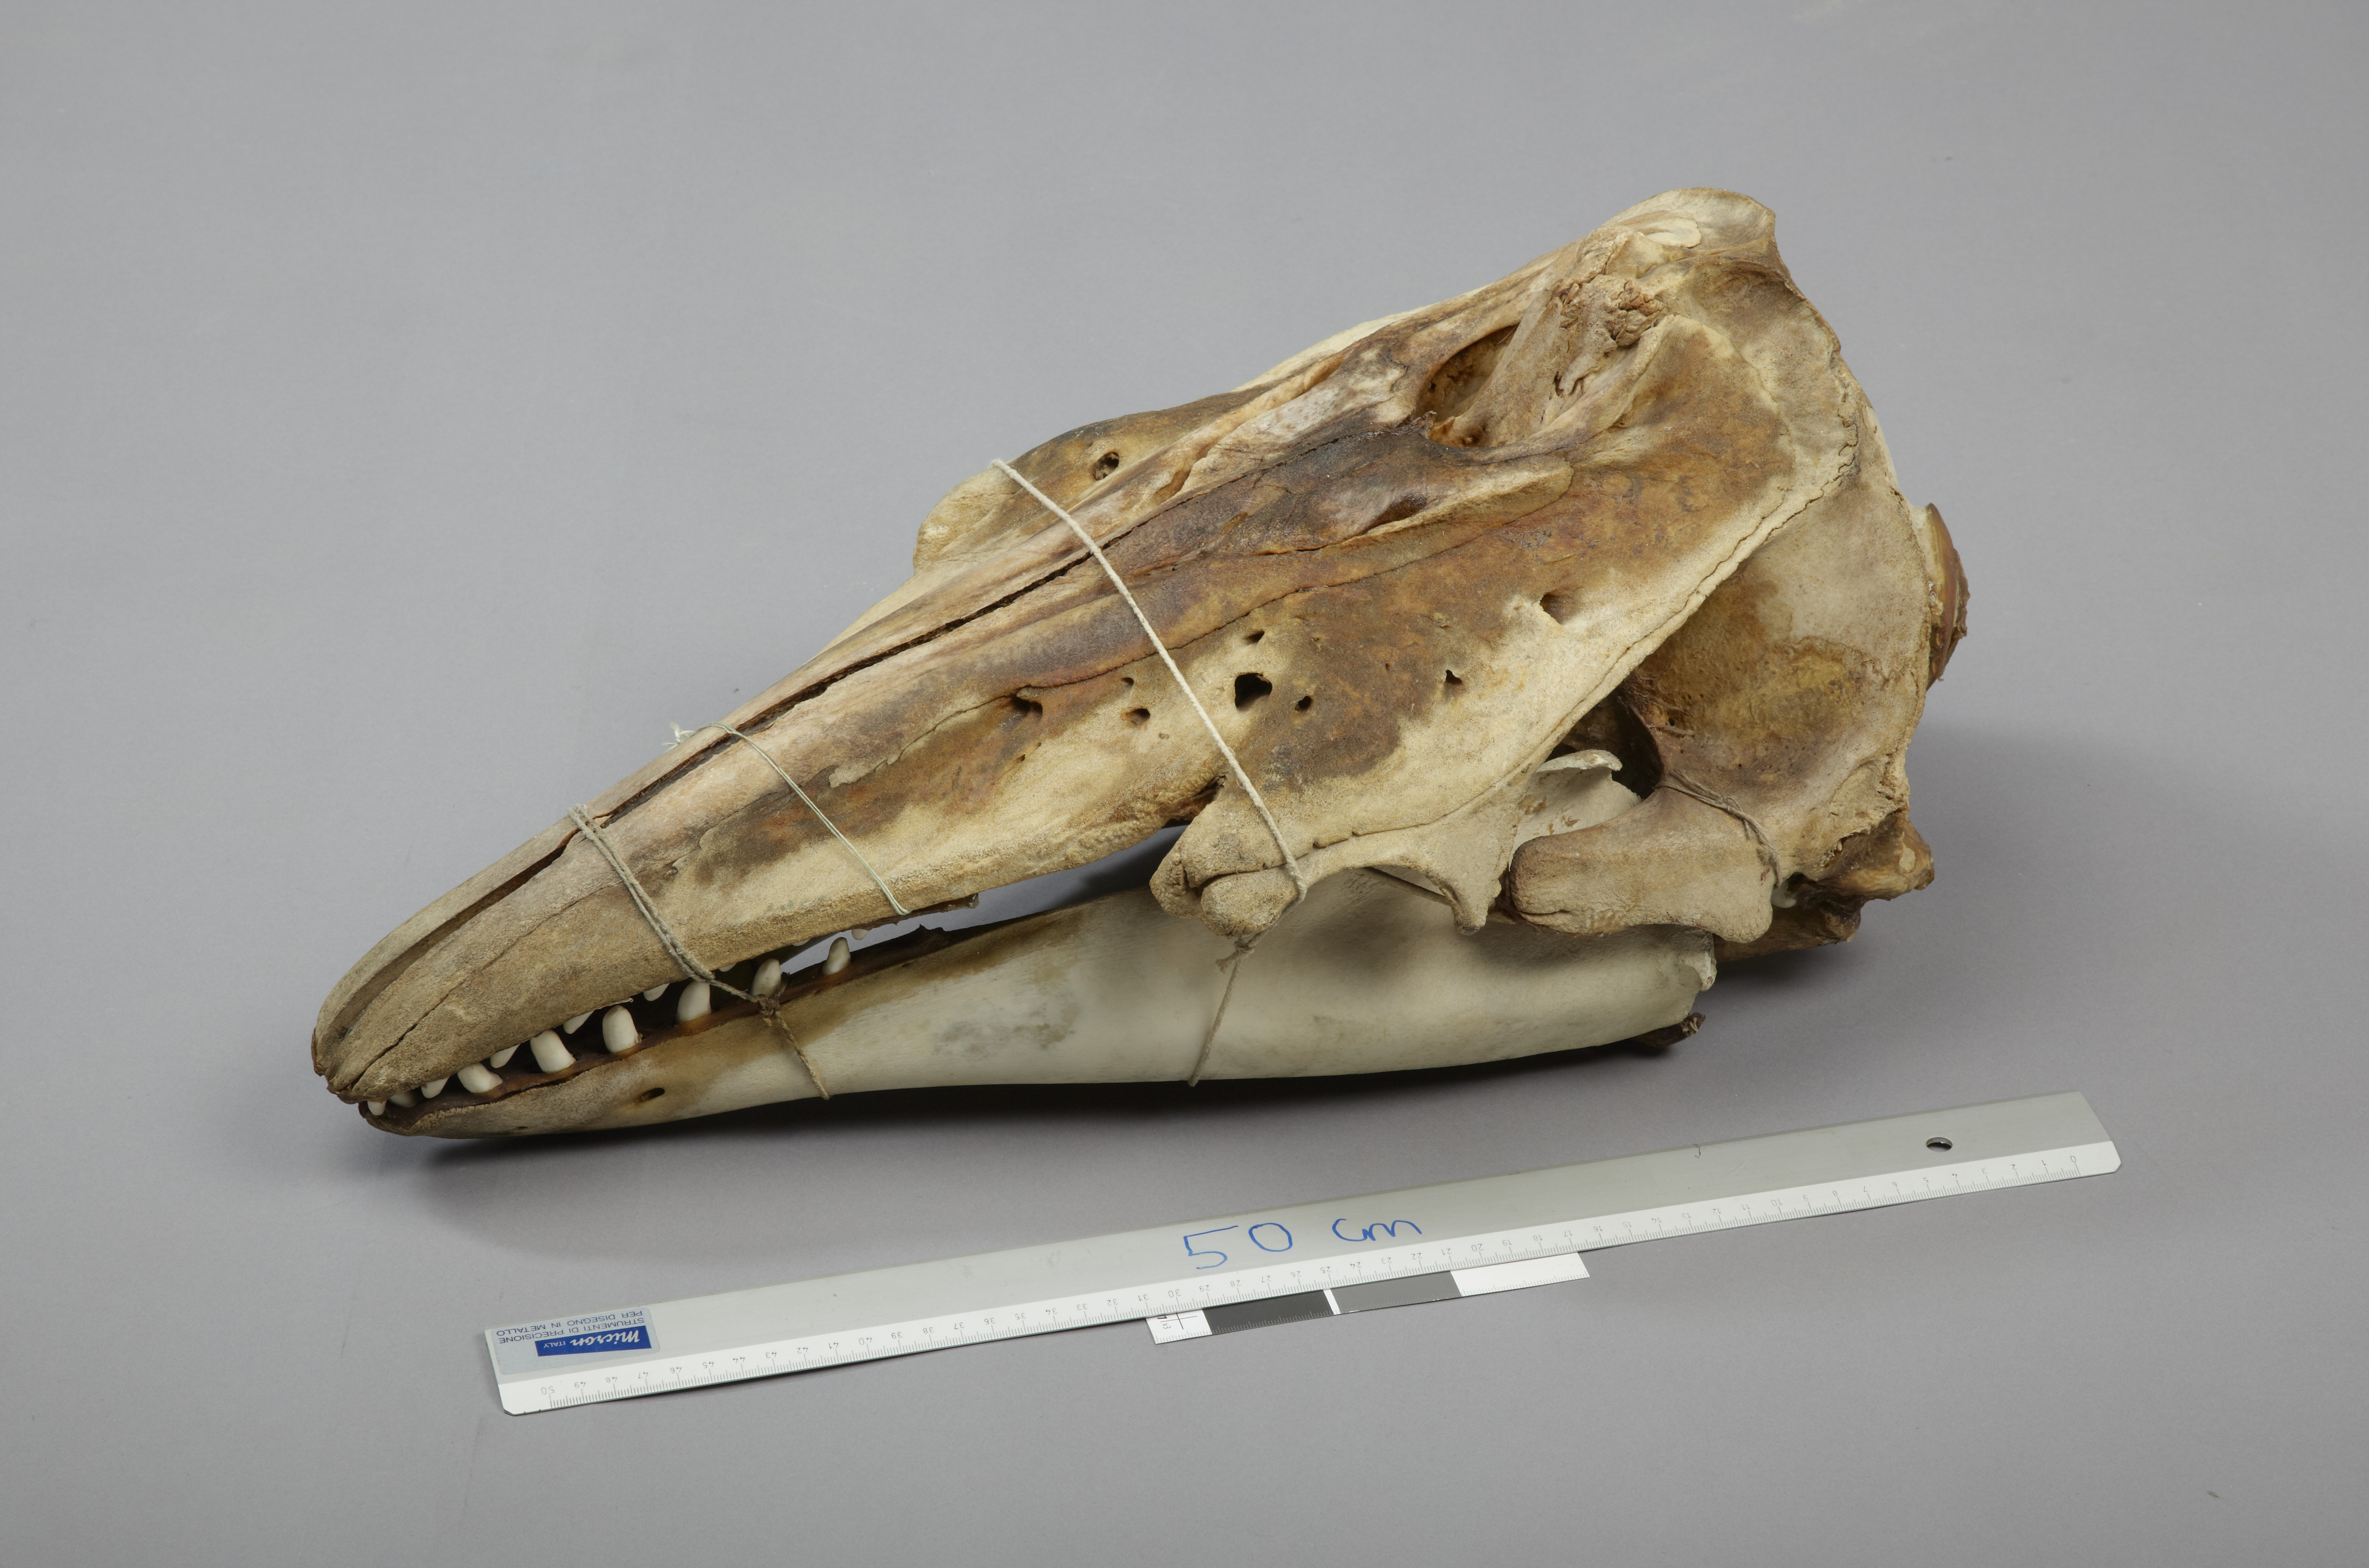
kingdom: Animalia
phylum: Chordata
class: Mammalia
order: Cetacea
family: Monodontidae
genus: Delphinapterus
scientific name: Delphinapterus leucas
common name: Beluga
